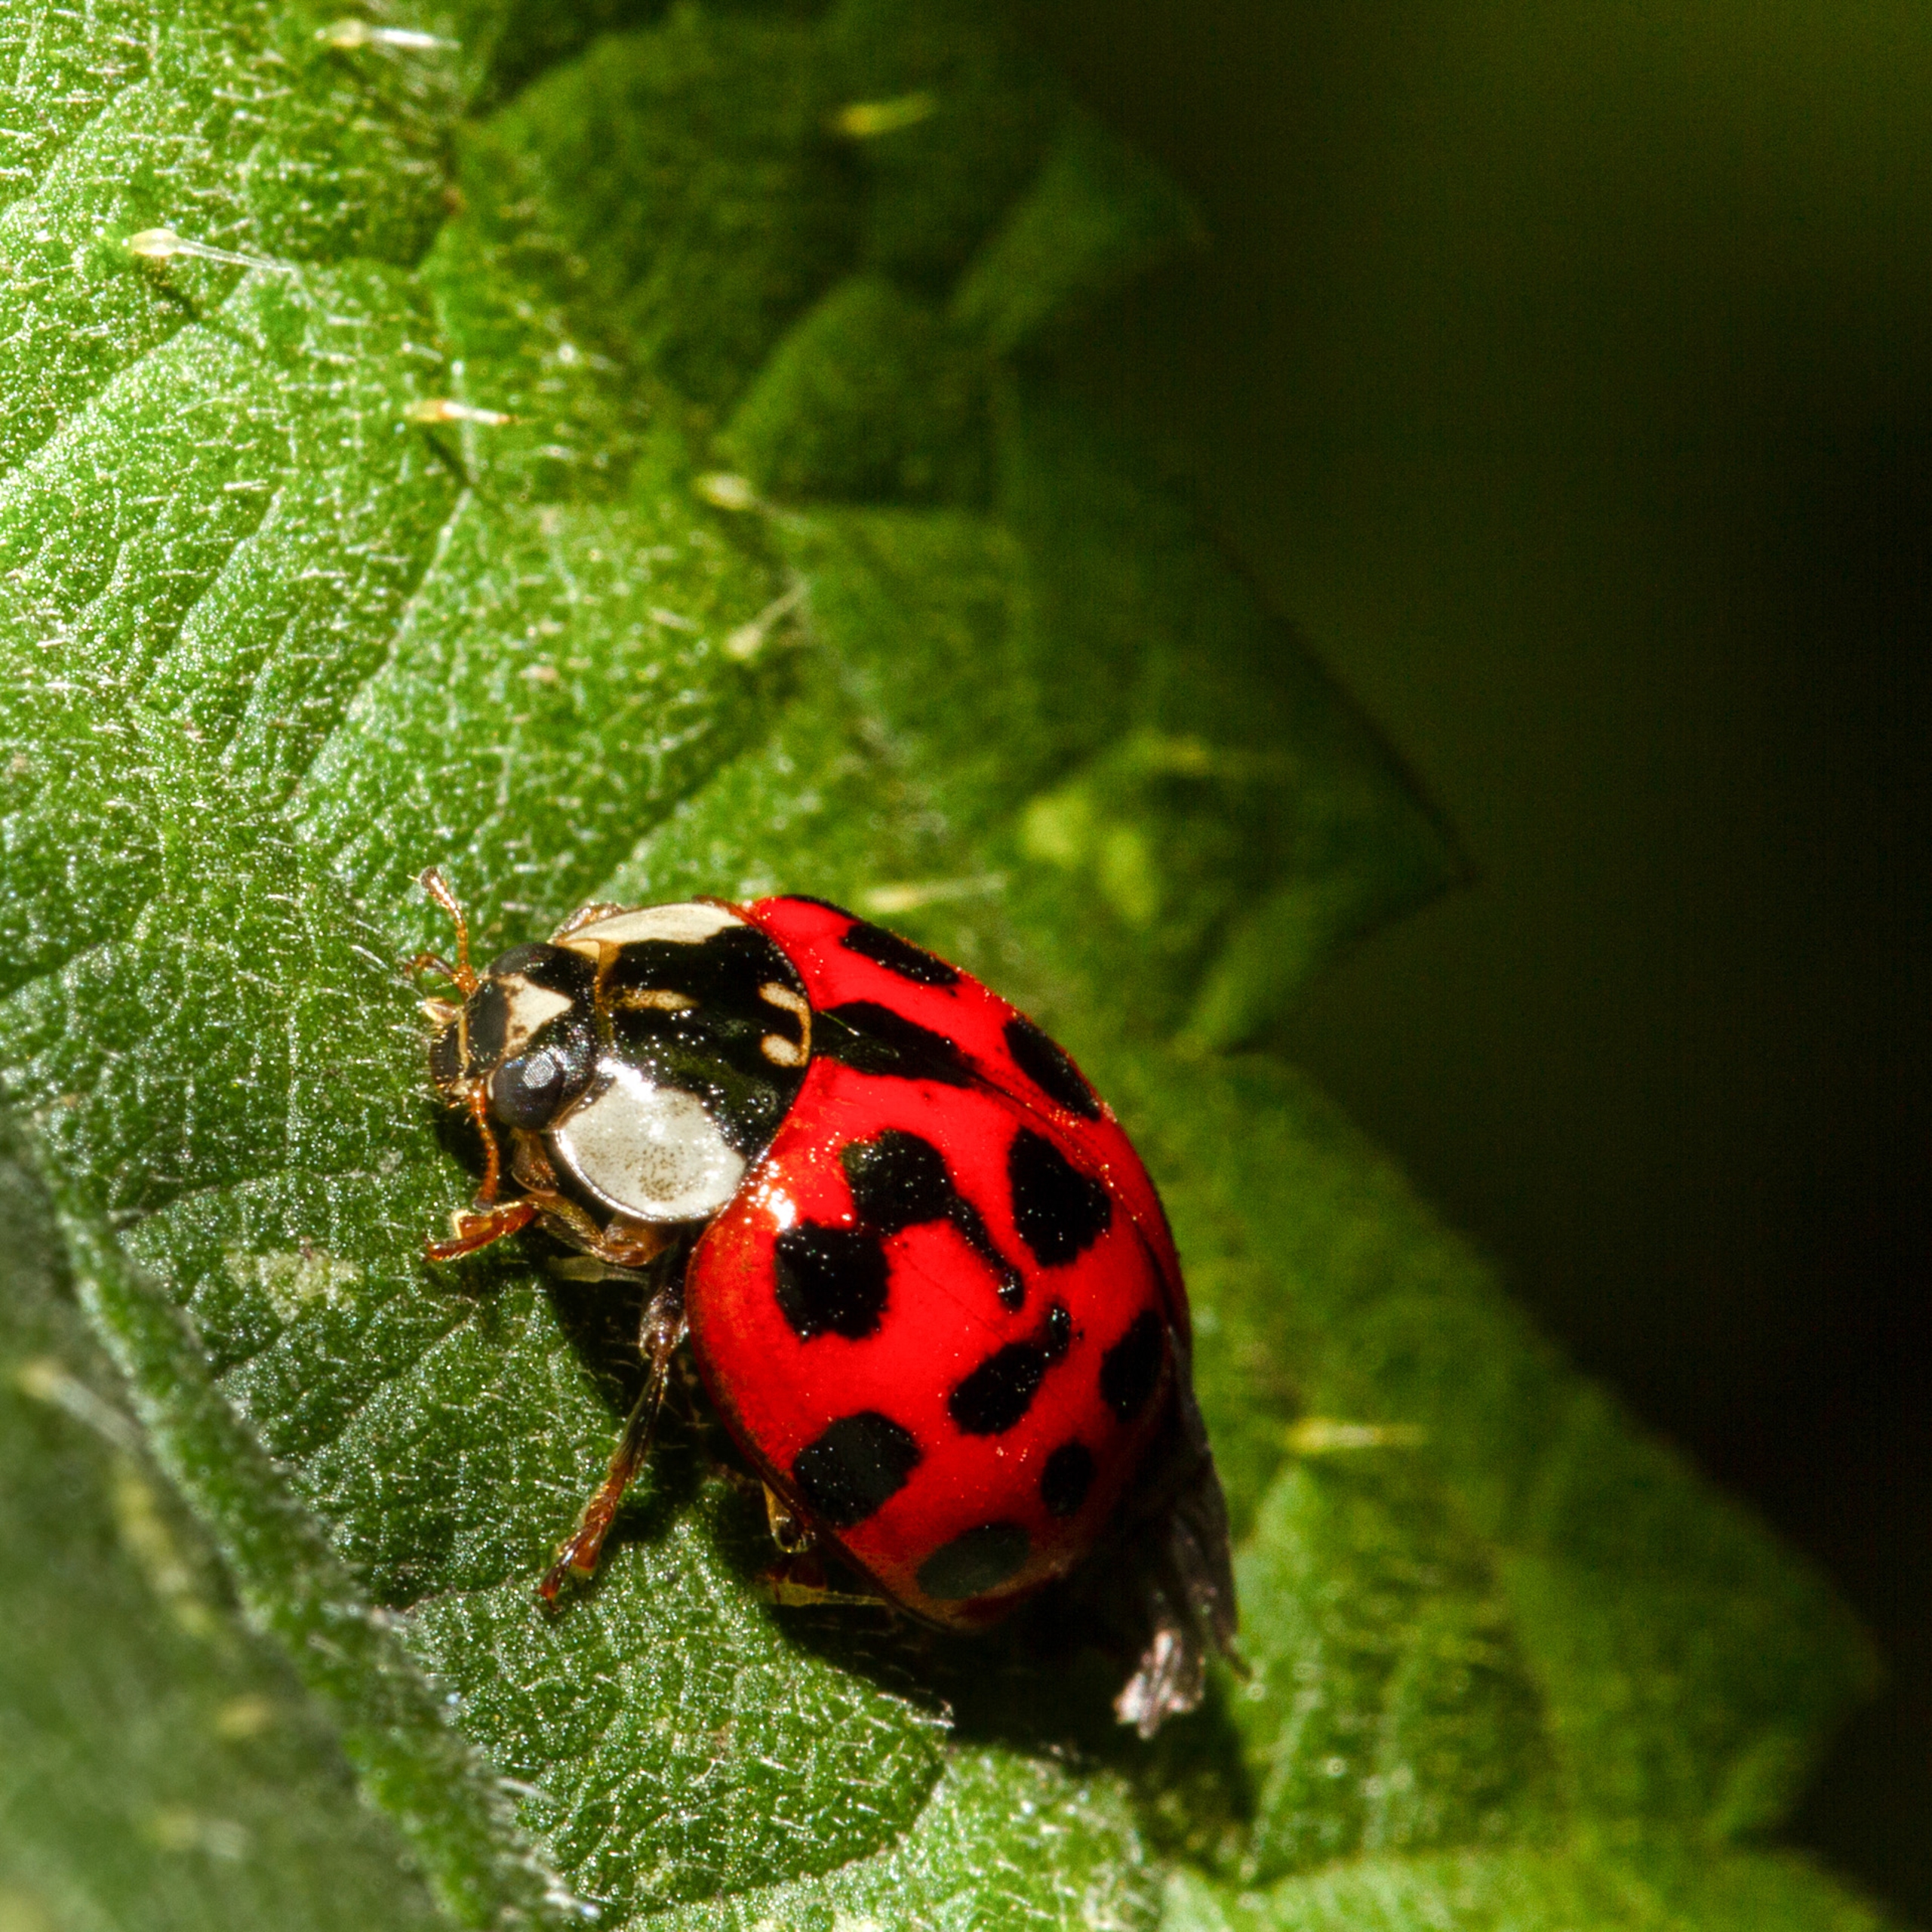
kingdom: Animalia
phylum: Arthropoda
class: Insecta
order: Coleoptera
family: Coccinellidae
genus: Harmonia
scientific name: Harmonia axyridis
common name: Harlekinmariehøne
